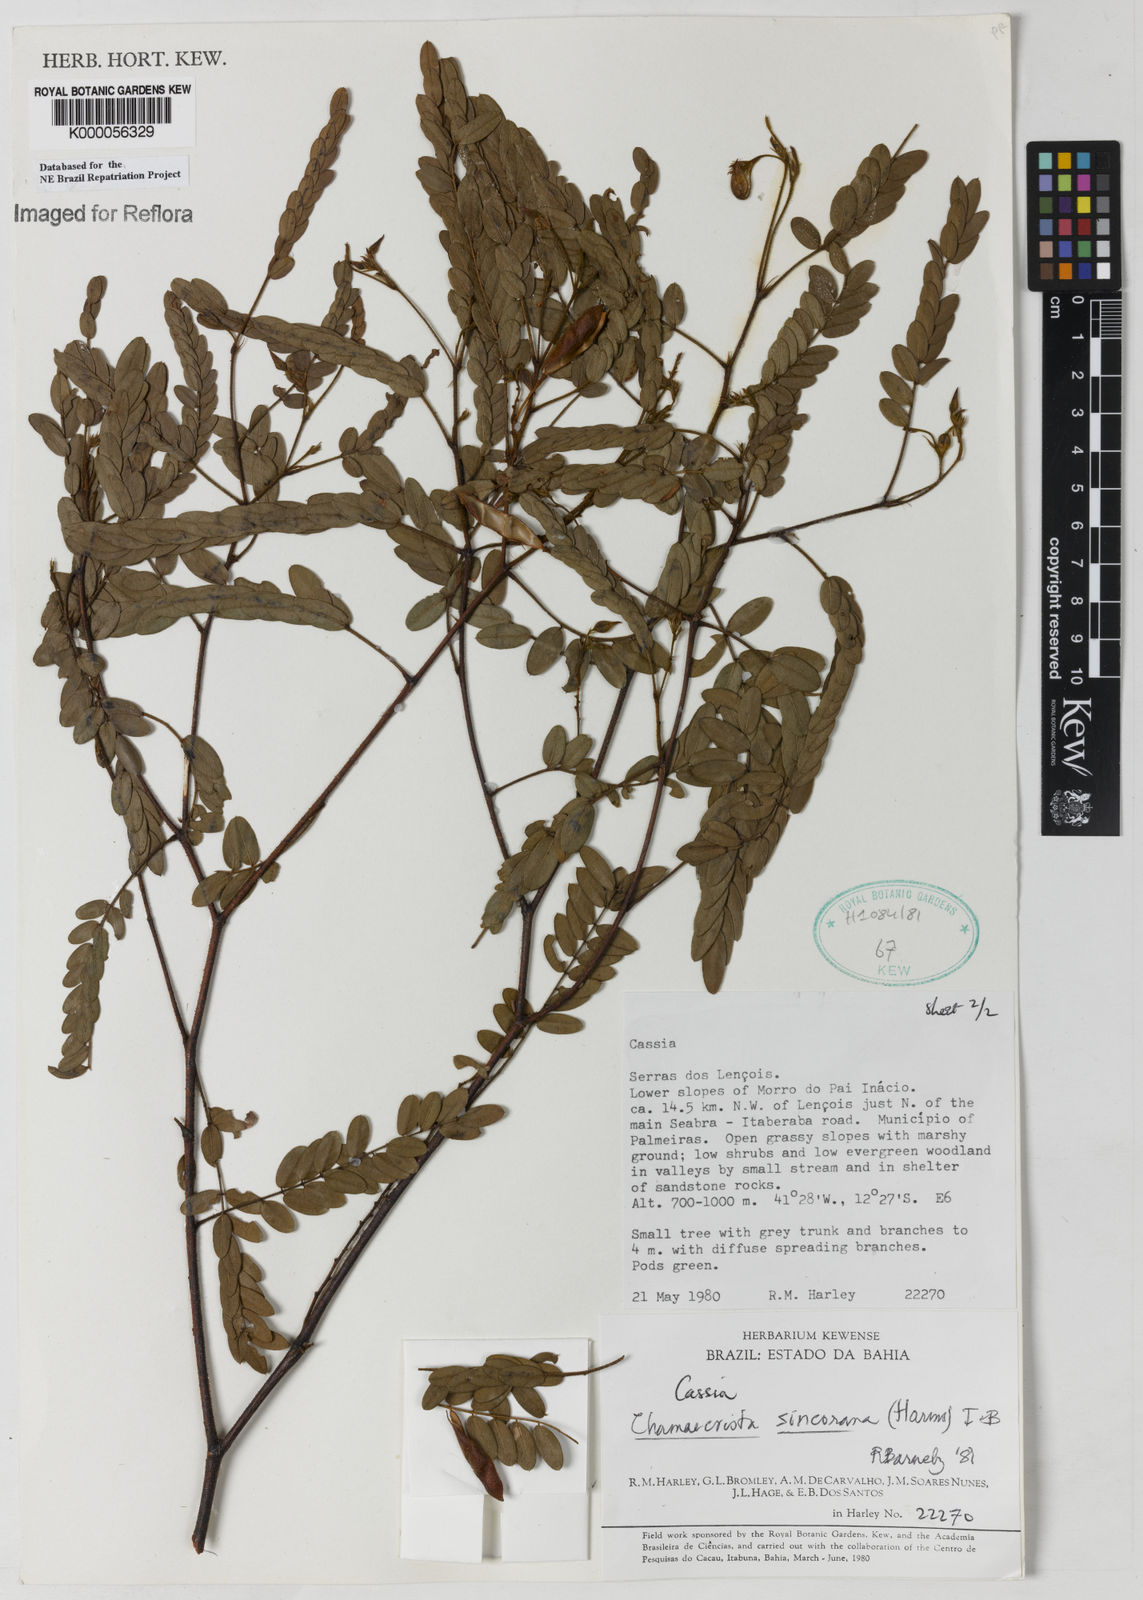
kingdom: Plantae
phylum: Tracheophyta
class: Magnoliopsida
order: Fabales
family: Fabaceae
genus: Chamaecrista
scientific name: Chamaecrista sincorana
